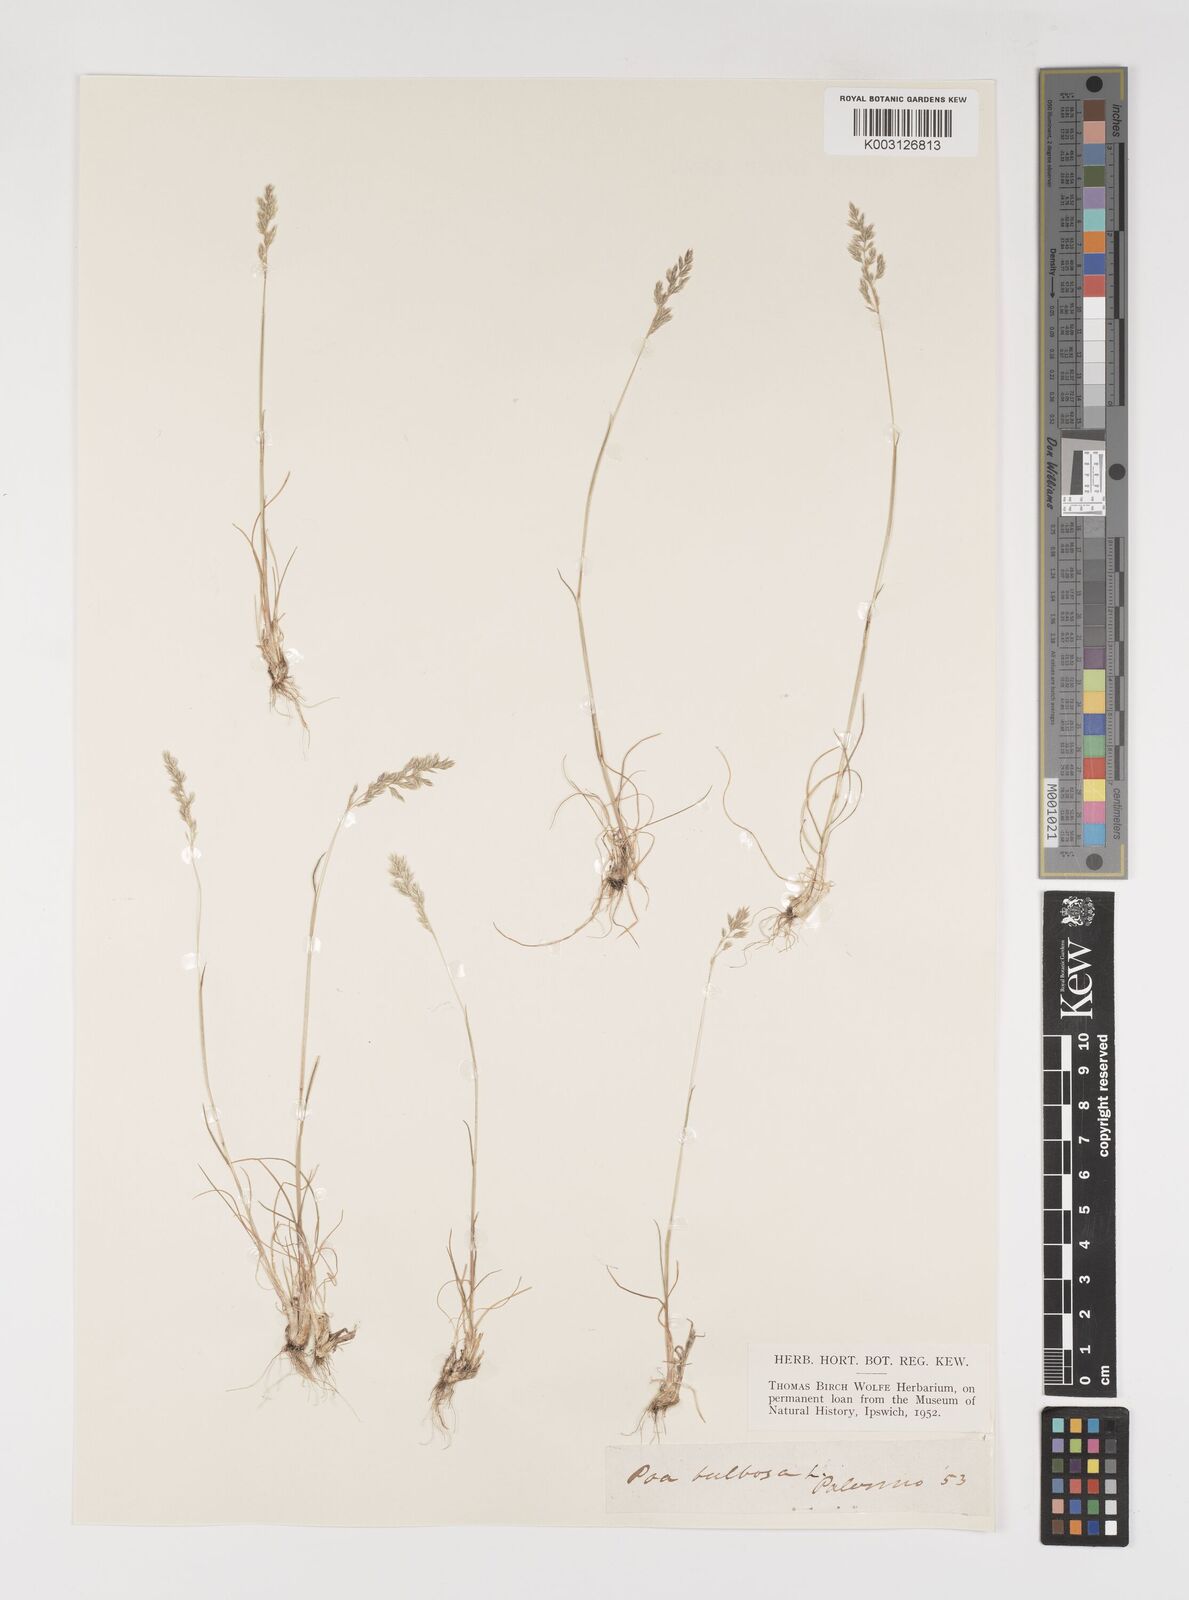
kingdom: Plantae
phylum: Tracheophyta
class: Liliopsida
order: Poales
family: Poaceae
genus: Poa
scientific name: Poa bulbosa
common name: Bulbous bluegrass
